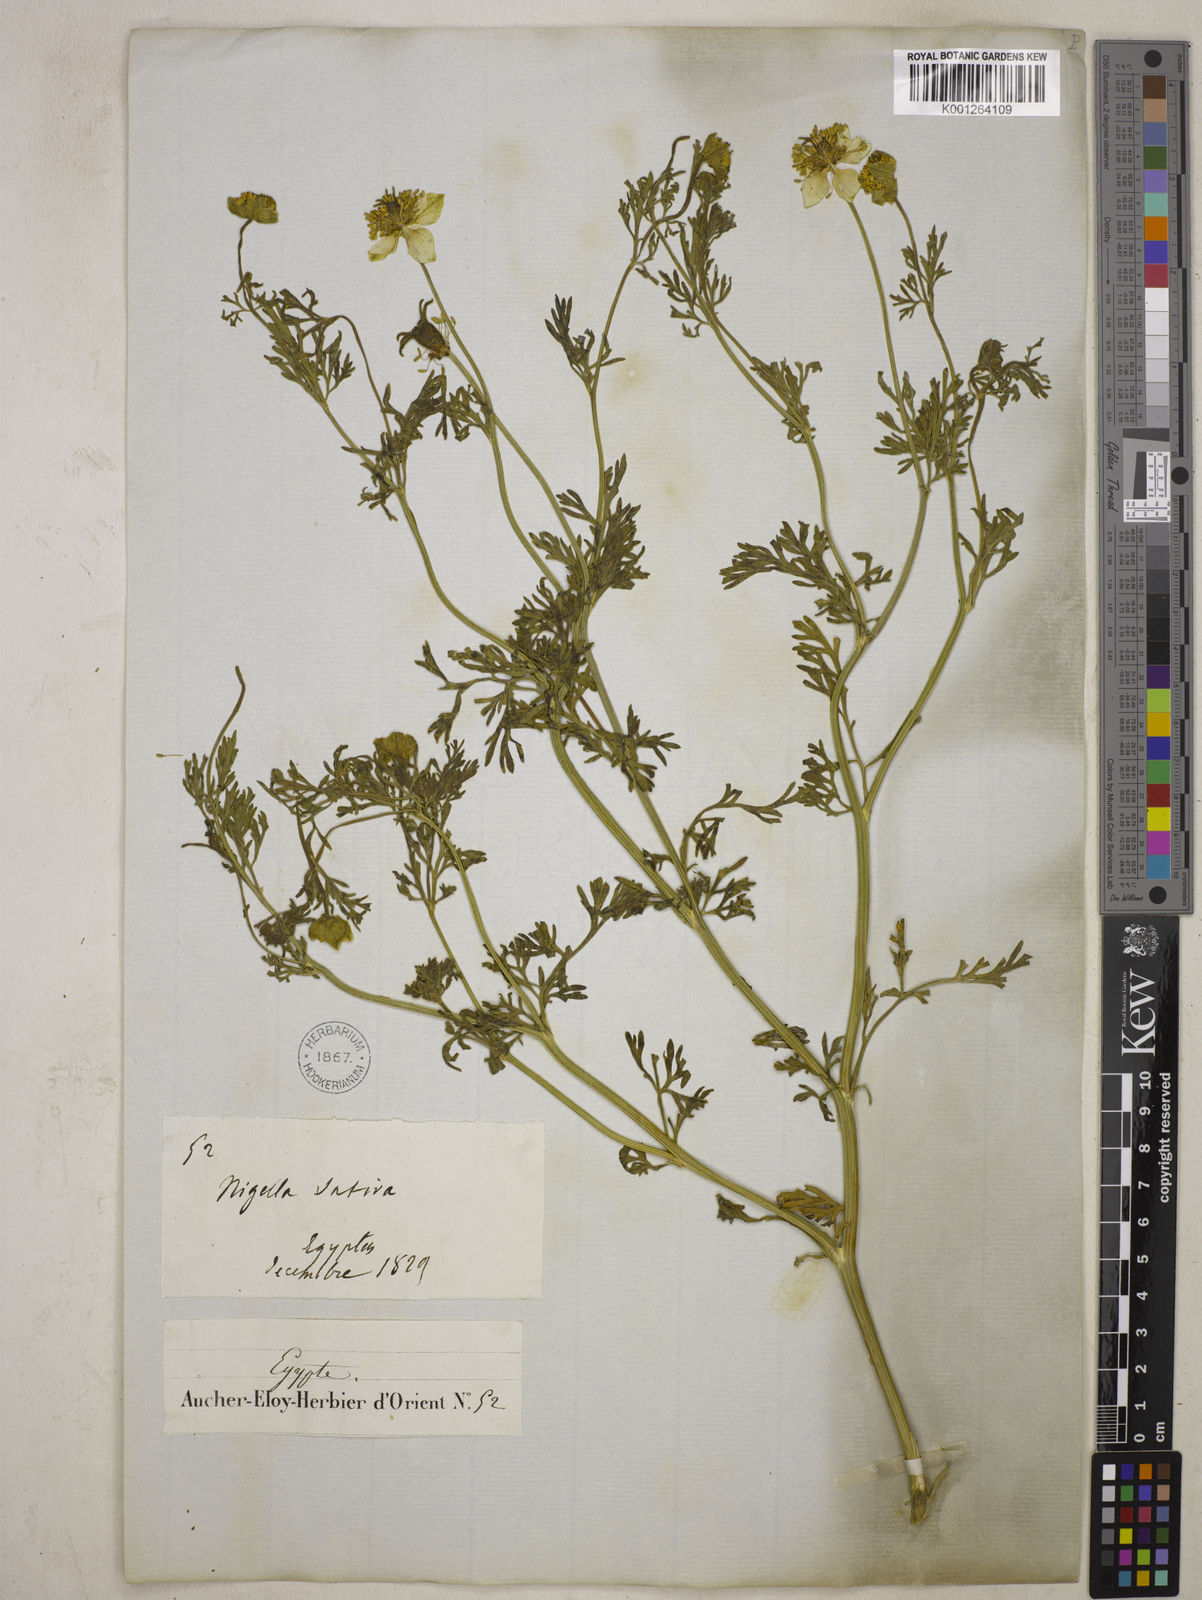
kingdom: Plantae
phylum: Tracheophyta
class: Magnoliopsida
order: Ranunculales
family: Ranunculaceae
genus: Nigella
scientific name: Nigella sativa
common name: Black-cumin
